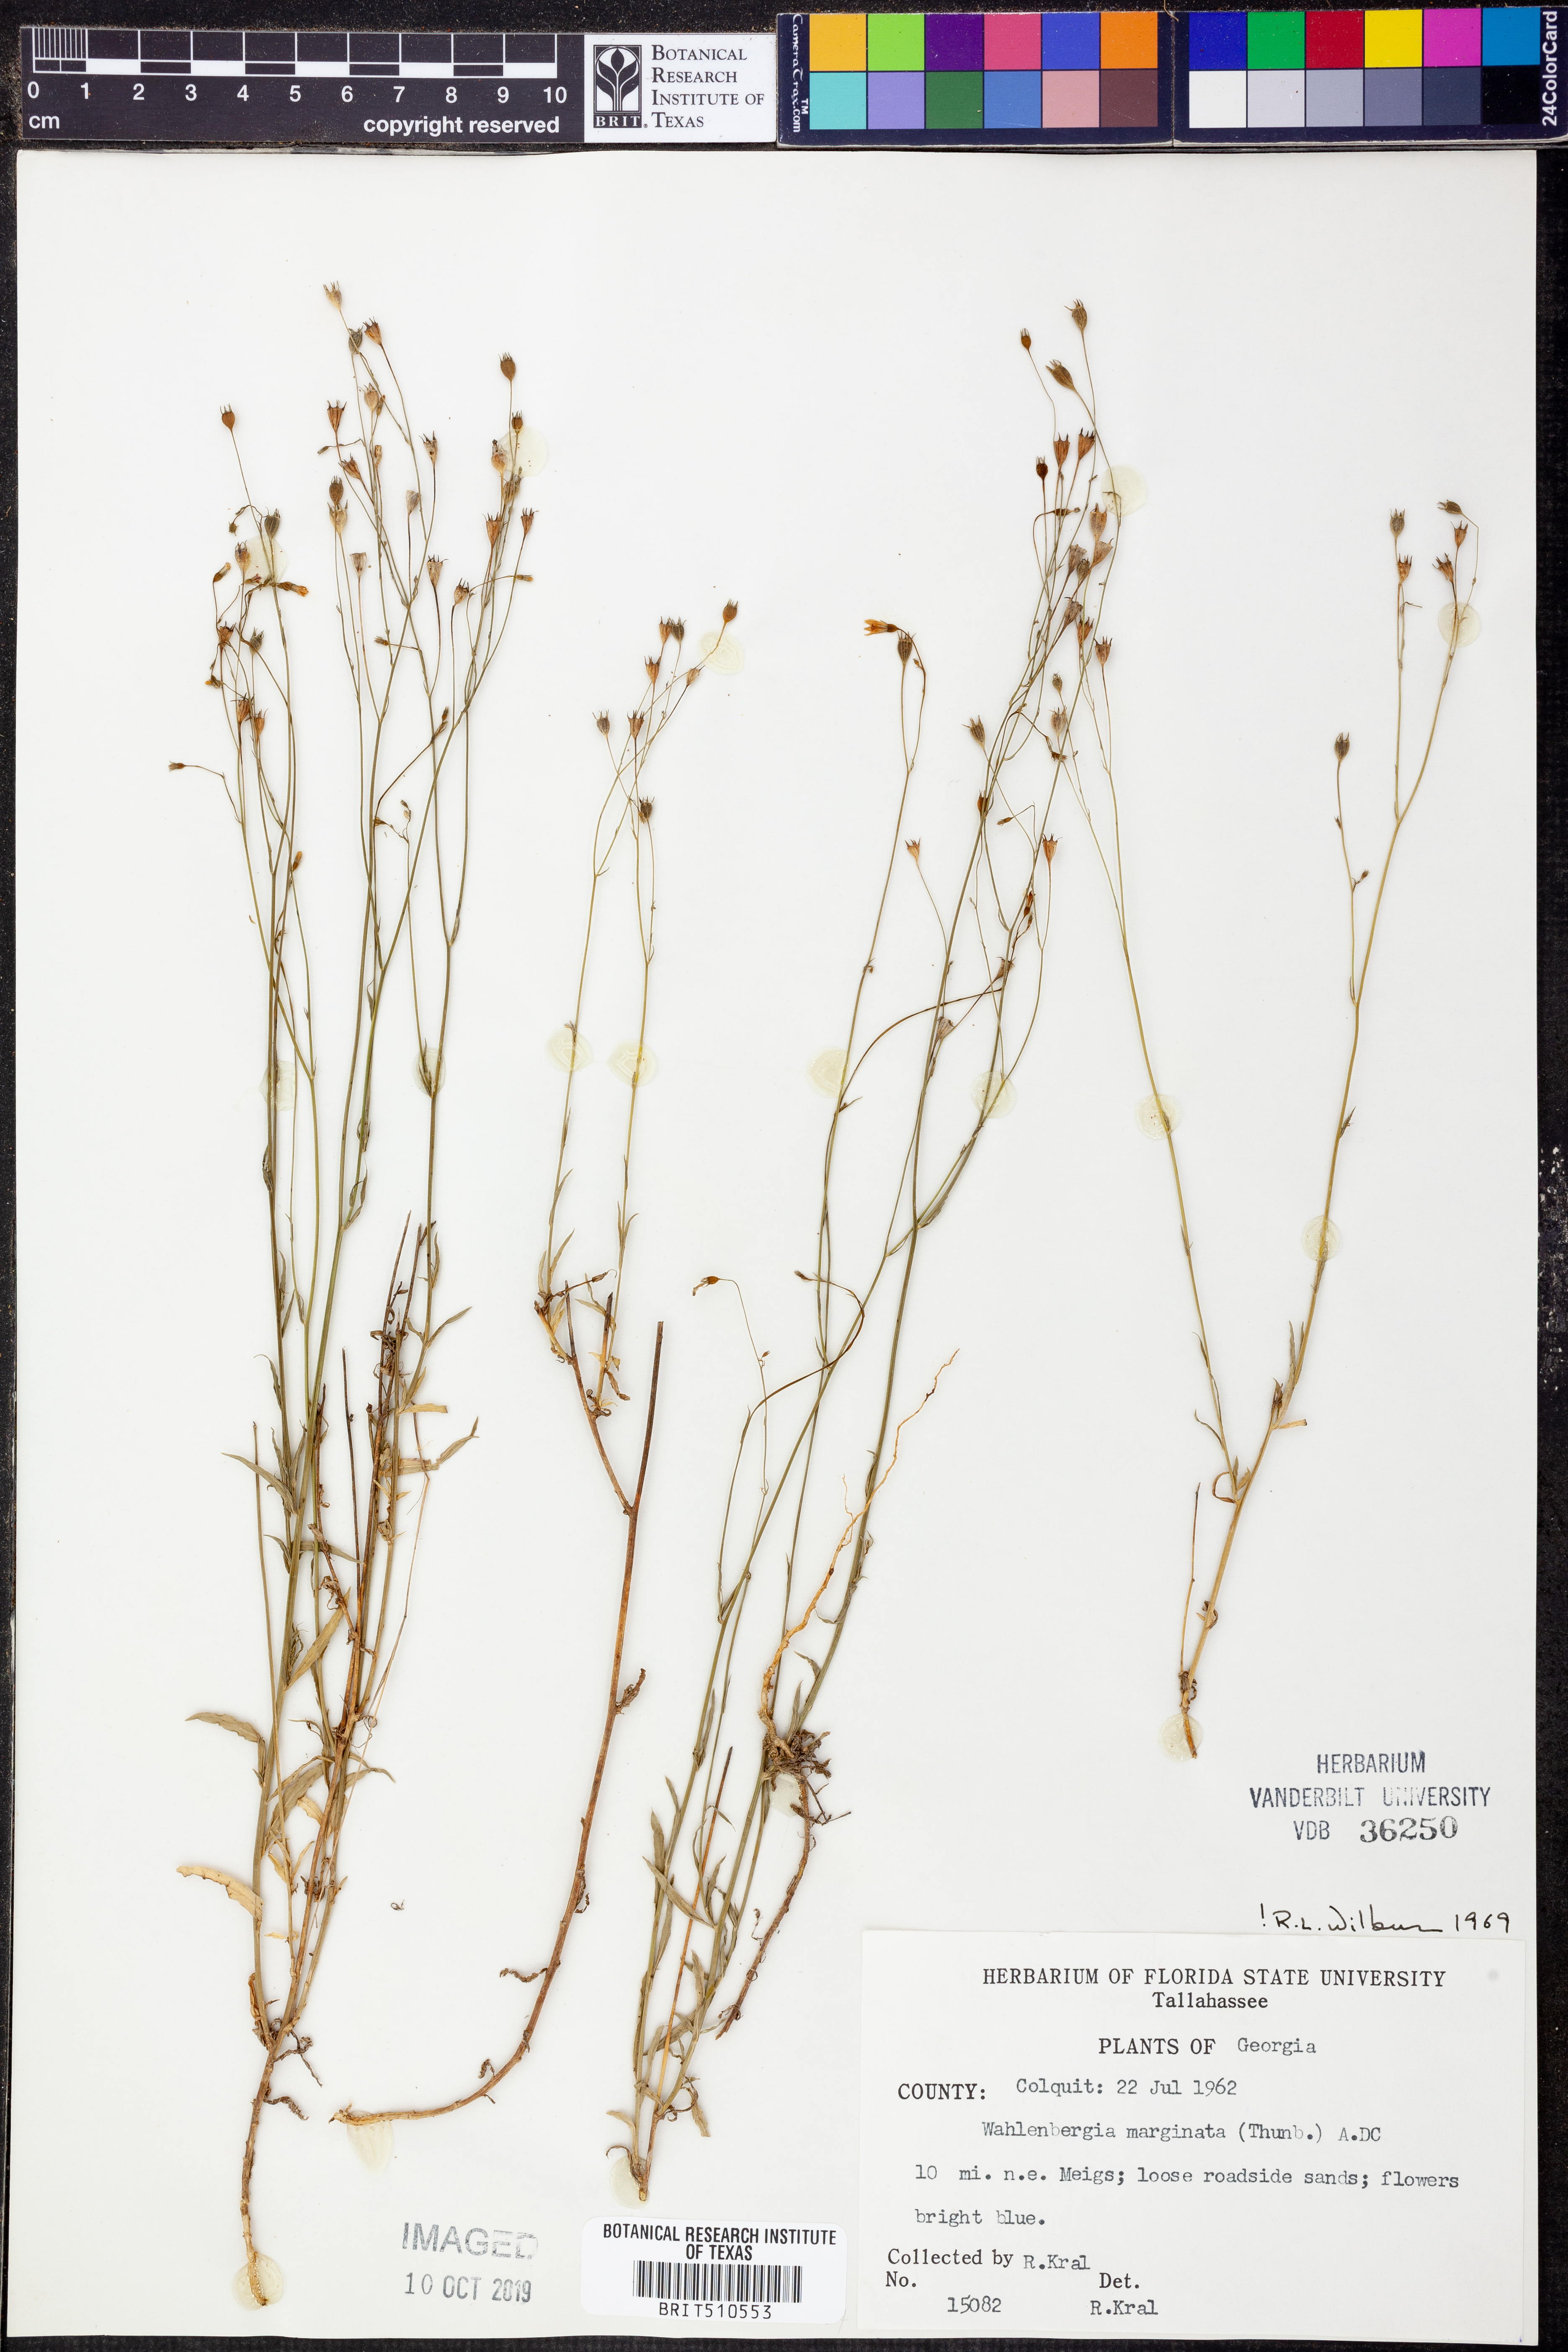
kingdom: Plantae
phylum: Tracheophyta
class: Magnoliopsida
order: Asterales
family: Campanulaceae
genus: Wahlenbergia
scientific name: Wahlenbergia marginata
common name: Southern rockbell
